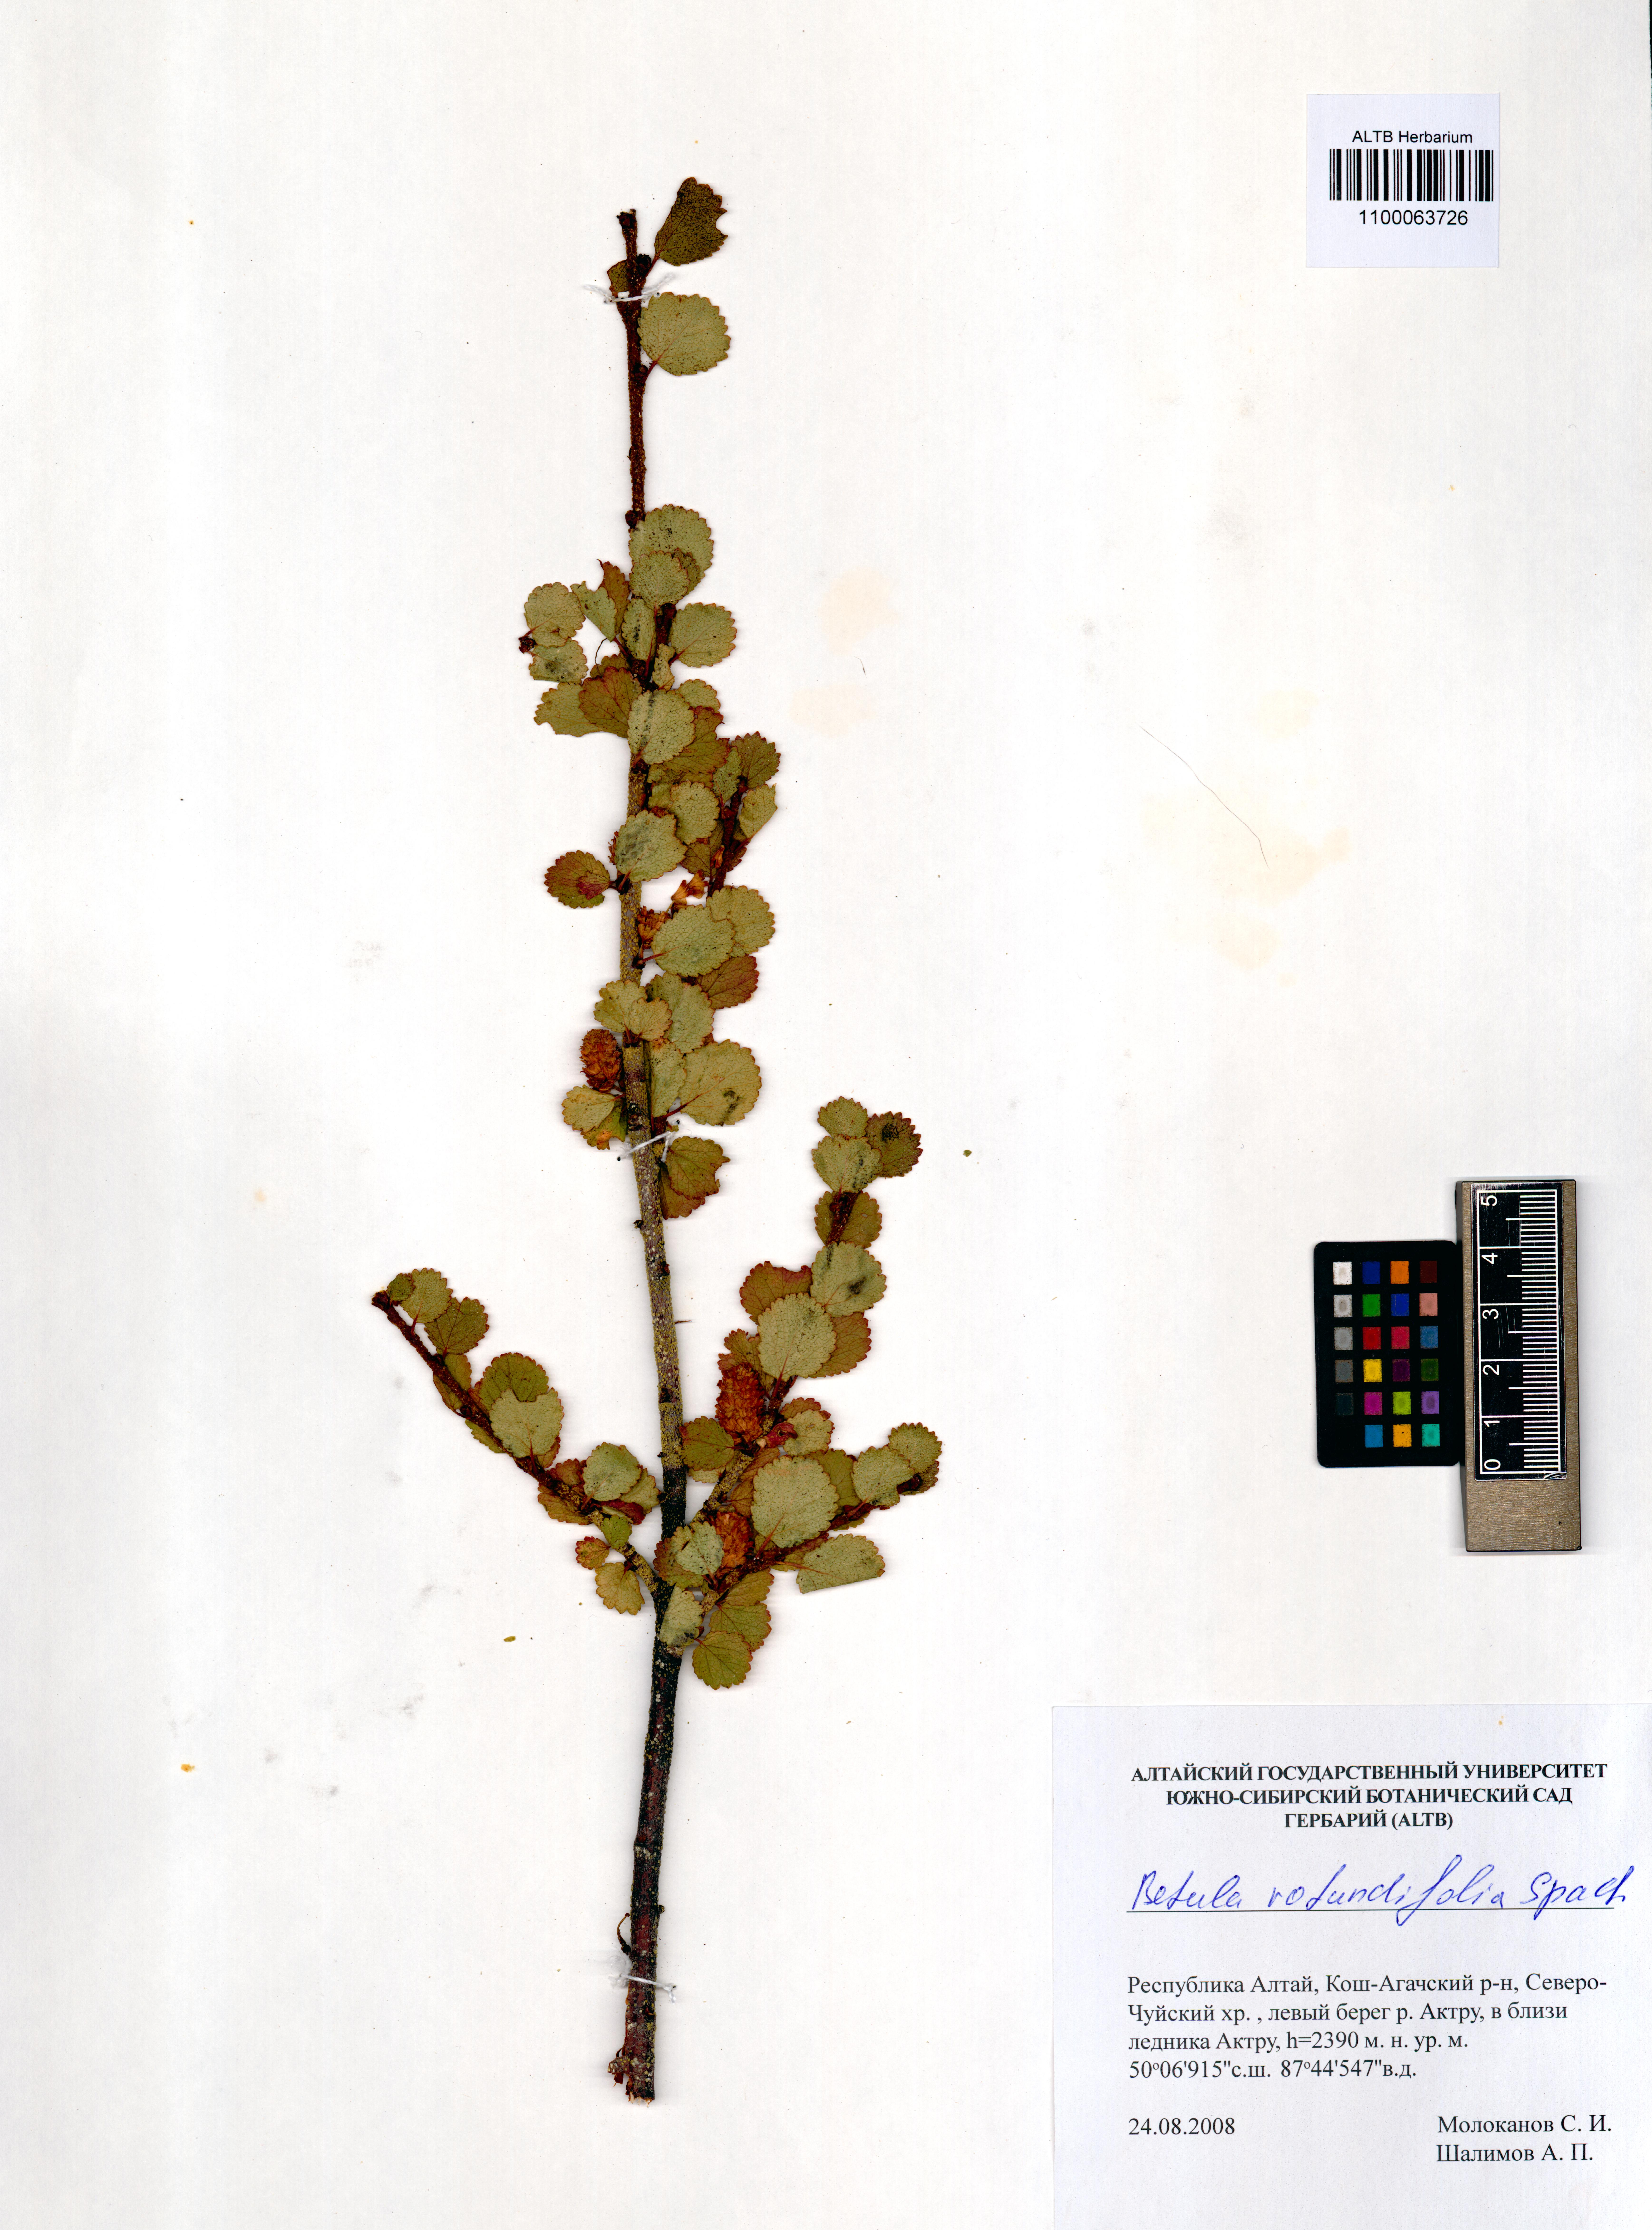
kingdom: Plantae
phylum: Tracheophyta
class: Magnoliopsida
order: Fagales
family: Betulaceae
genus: Betula
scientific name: Betula glandulosa
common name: Dwarf birch
